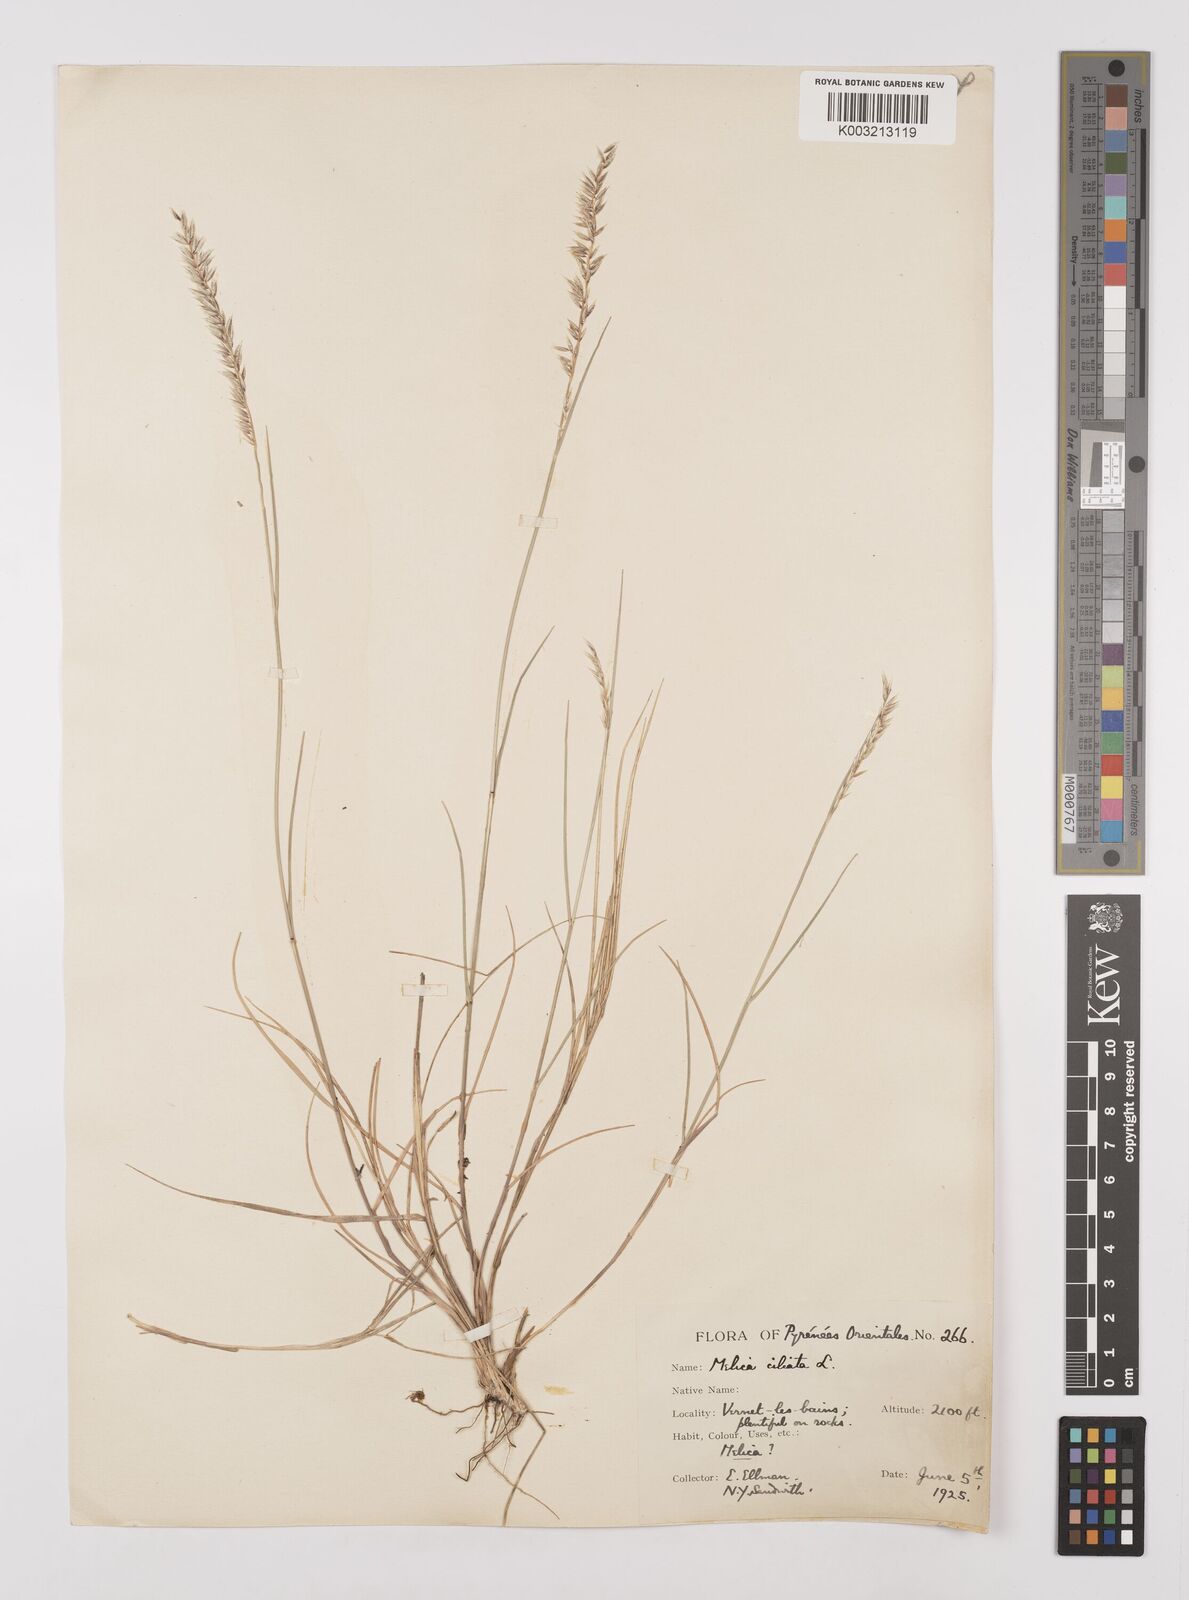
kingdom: Plantae
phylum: Tracheophyta
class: Liliopsida
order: Poales
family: Poaceae
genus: Melica
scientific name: Melica ciliata
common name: Hairy melicgrass
